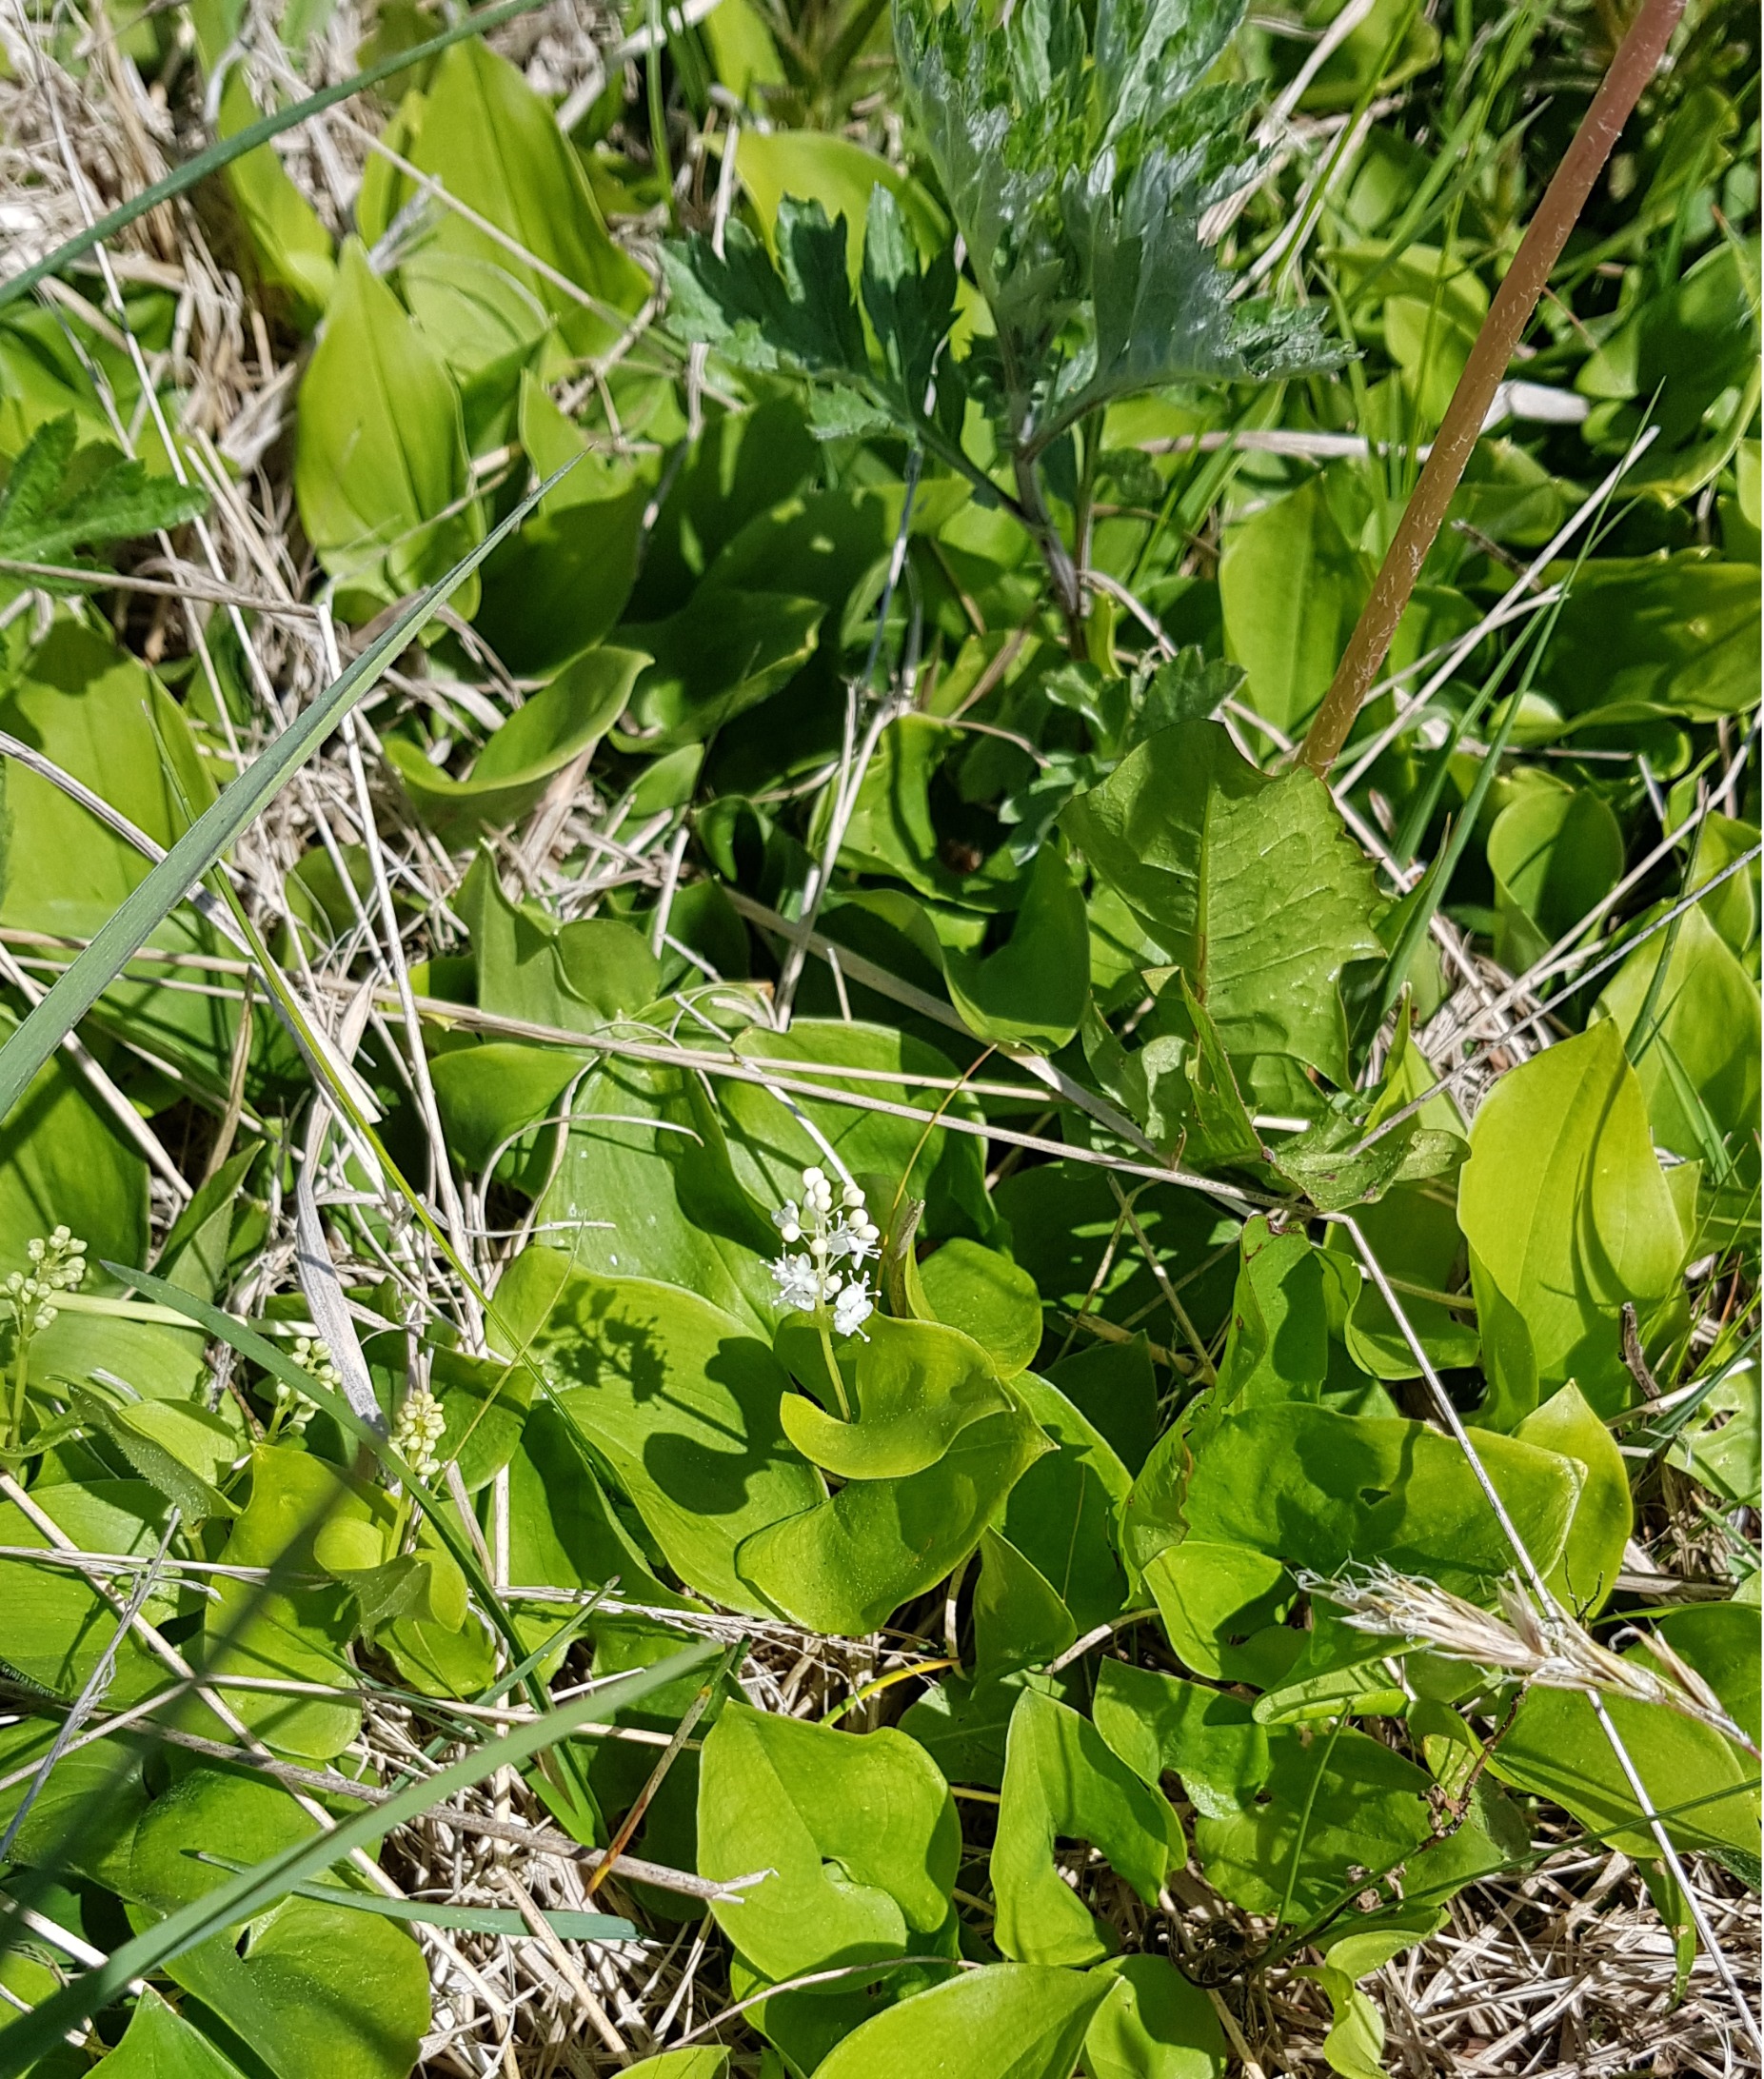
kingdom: Plantae
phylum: Tracheophyta
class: Liliopsida
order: Asparagales
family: Asparagaceae
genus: Maianthemum
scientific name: Maianthemum bifolium
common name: Majblomst
